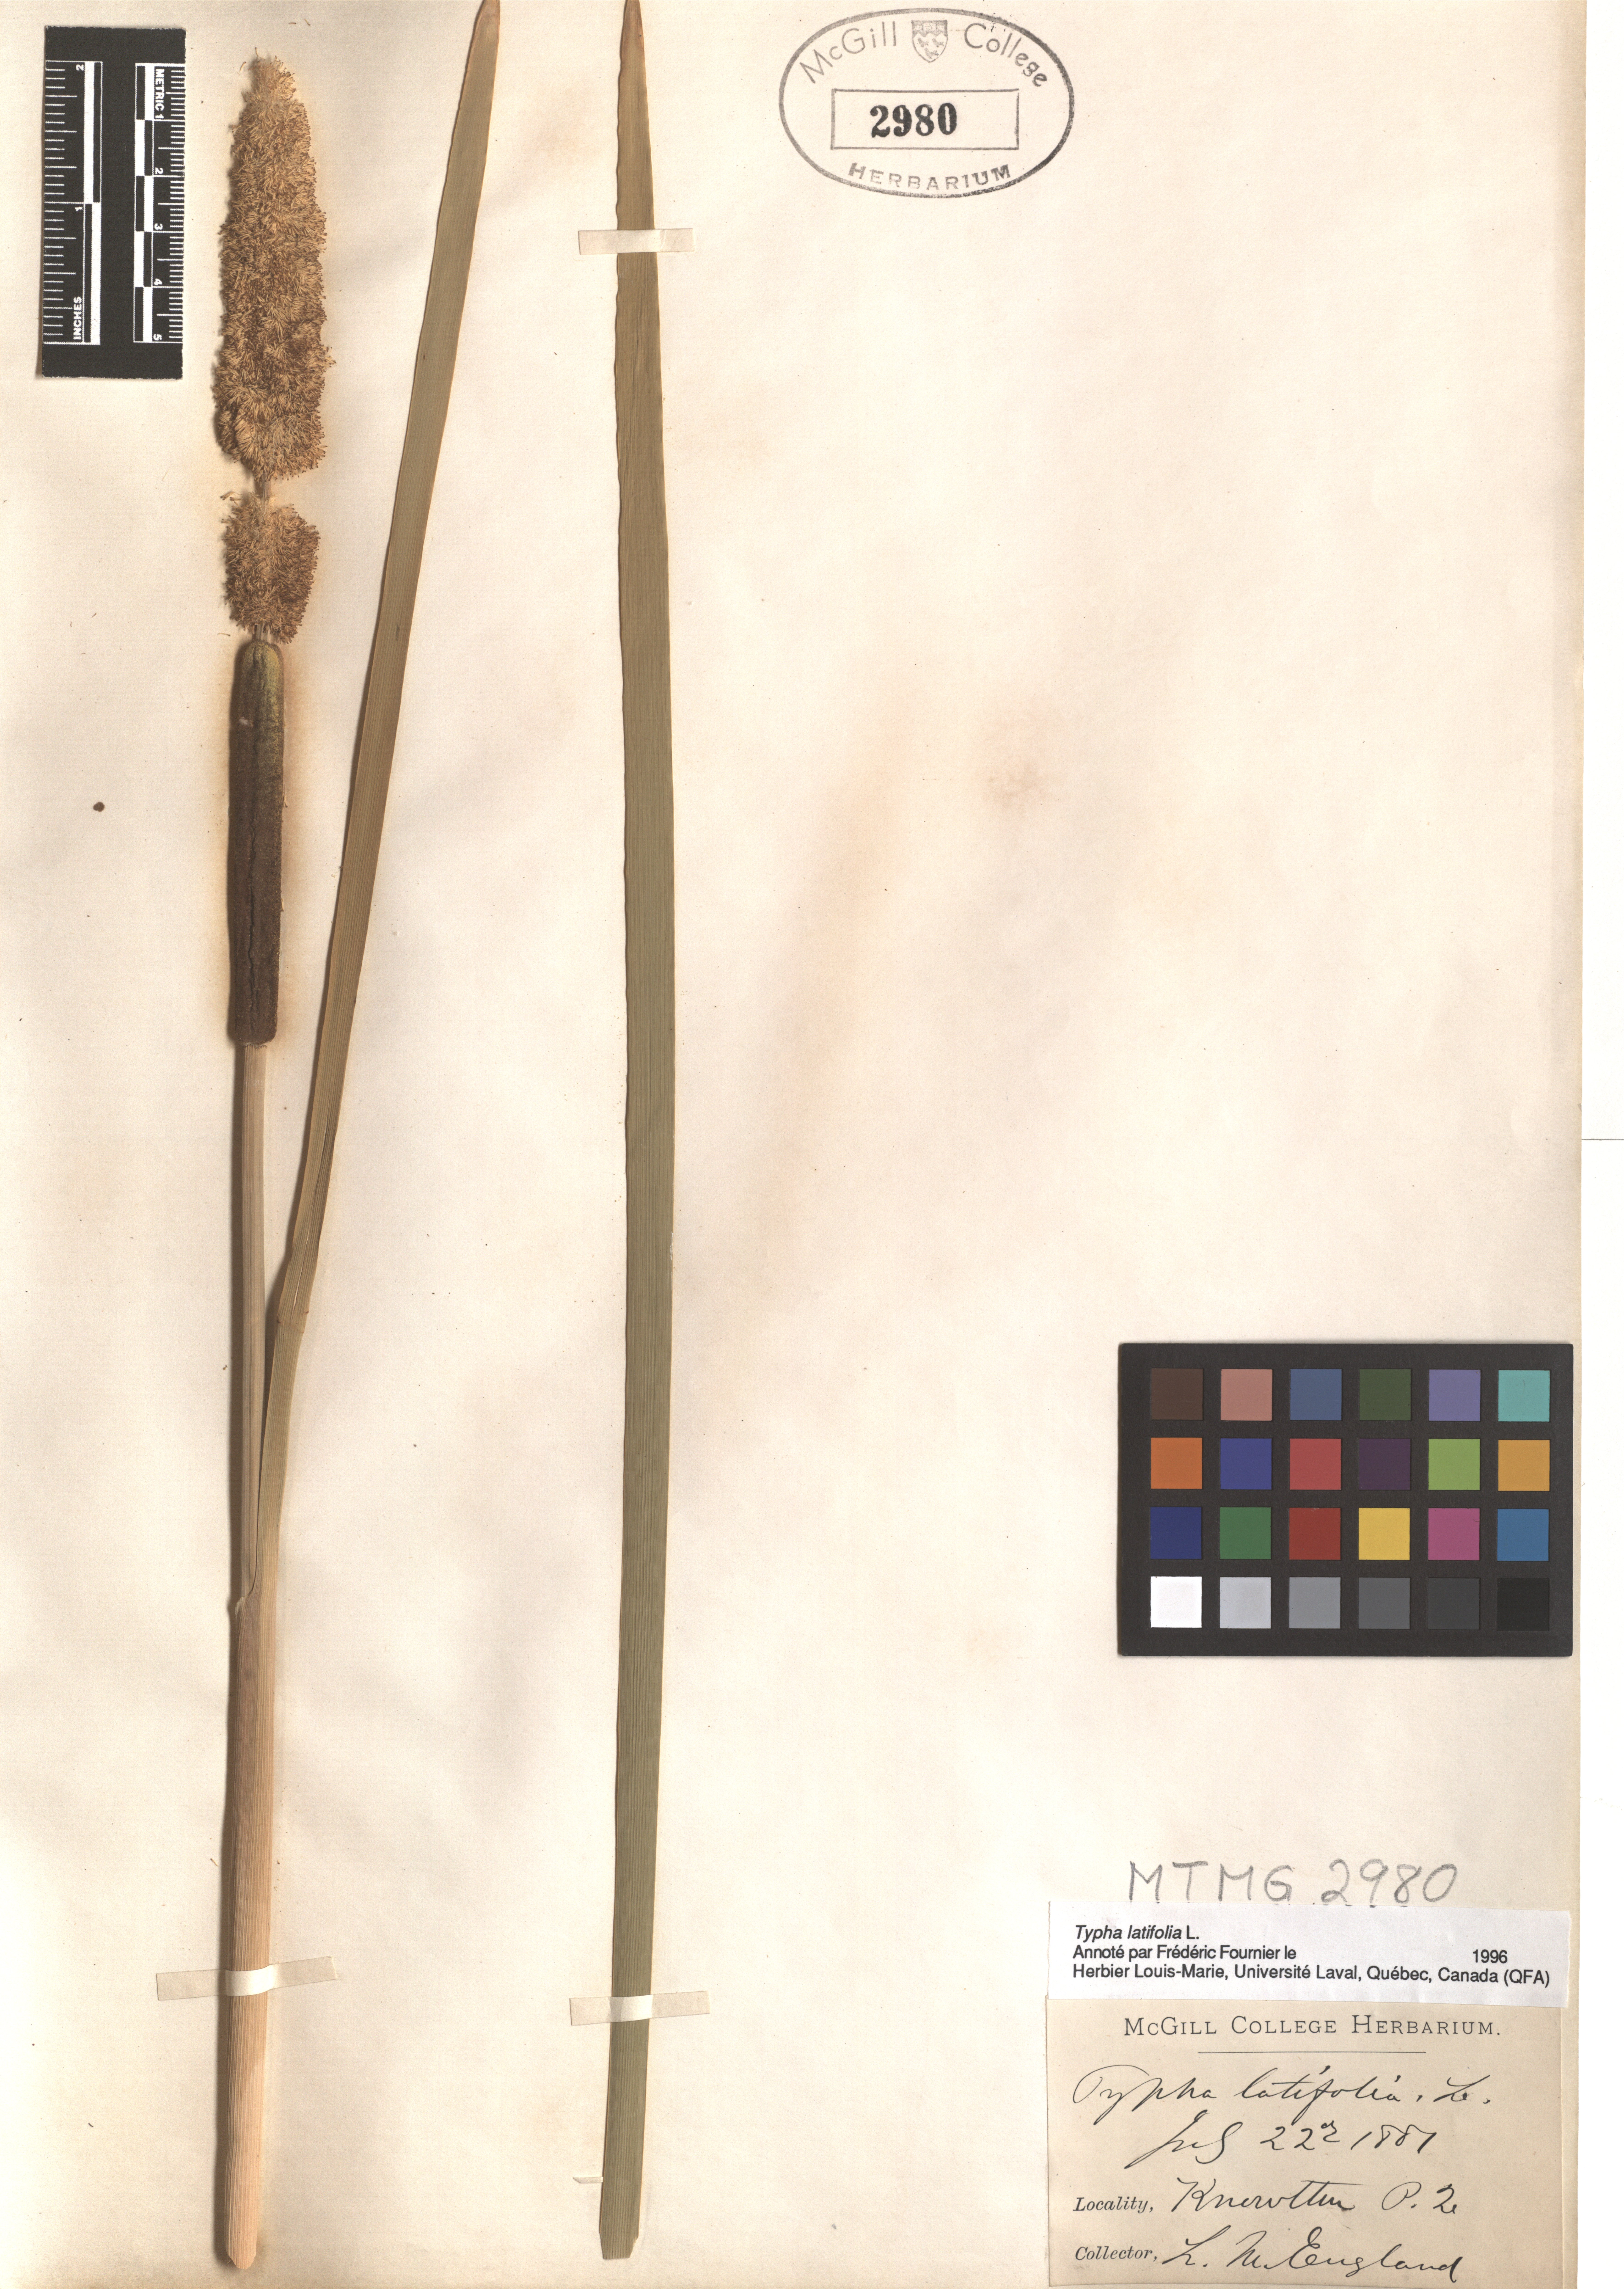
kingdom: Plantae
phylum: Tracheophyta
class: Liliopsida
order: Poales
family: Typhaceae
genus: Typha
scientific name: Typha latifolia
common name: Broadleaf cattail
